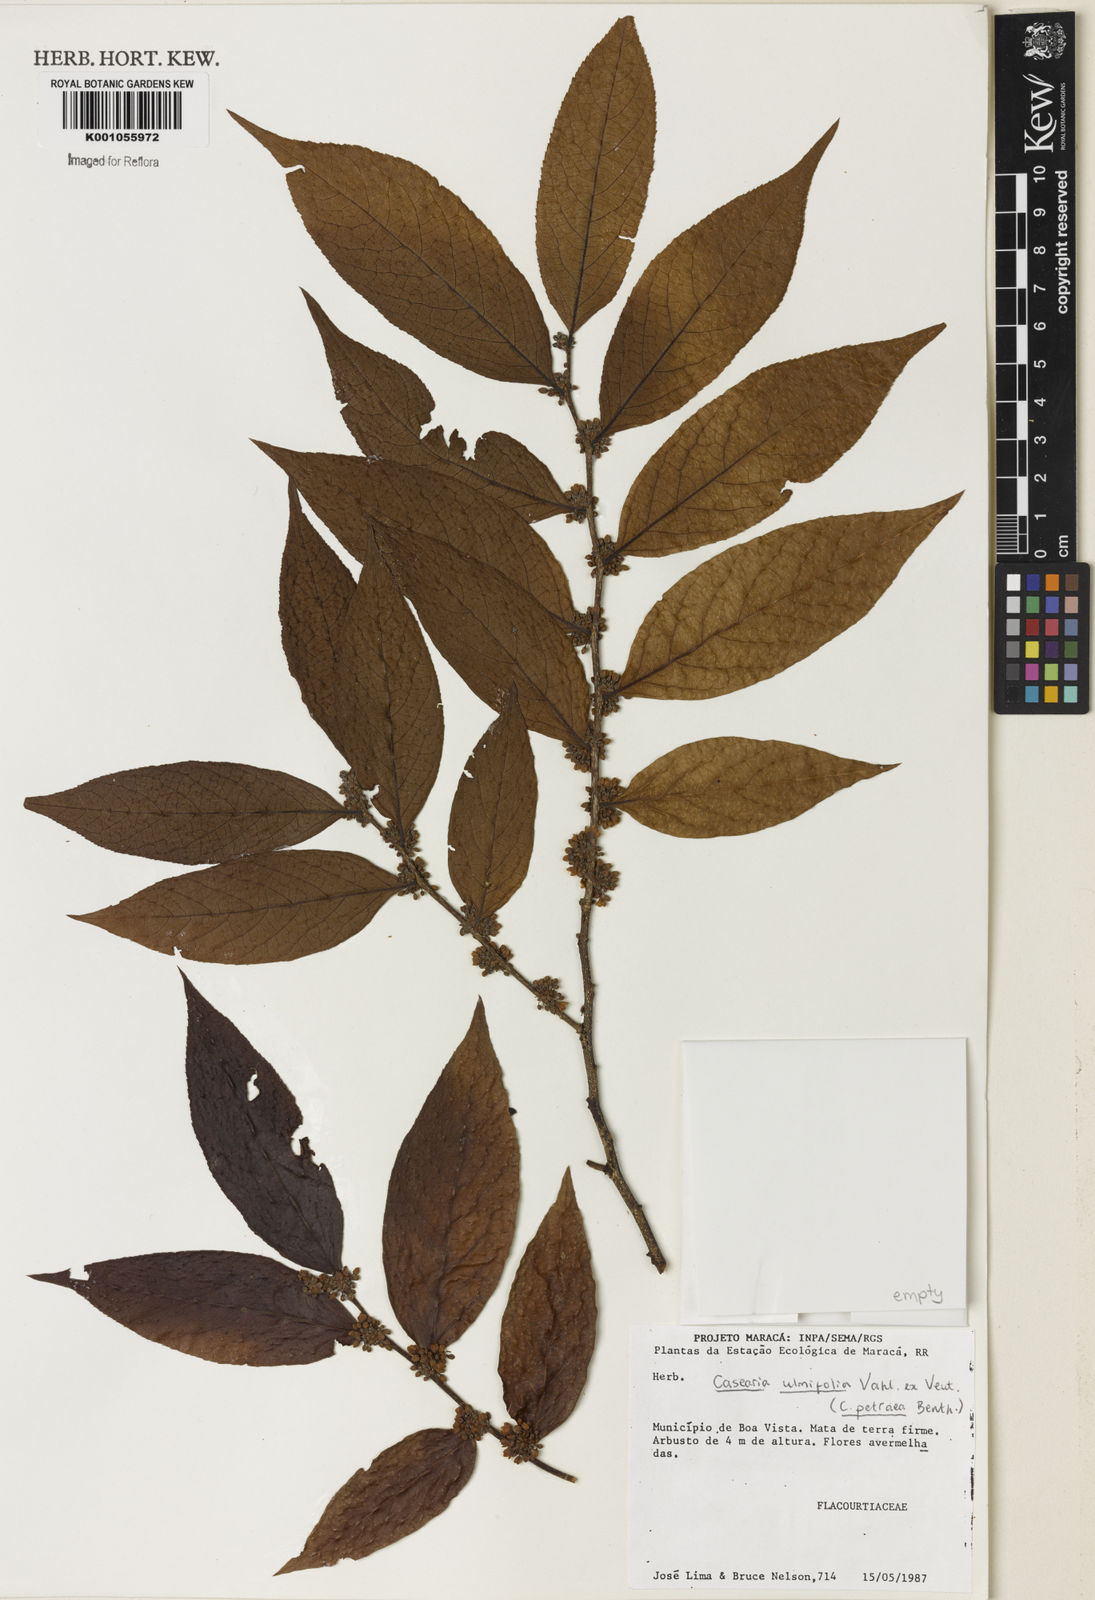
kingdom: Plantae
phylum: Tracheophyta
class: Magnoliopsida
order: Malpighiales
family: Salicaceae
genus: Casearia
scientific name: Casearia ulmifolia
